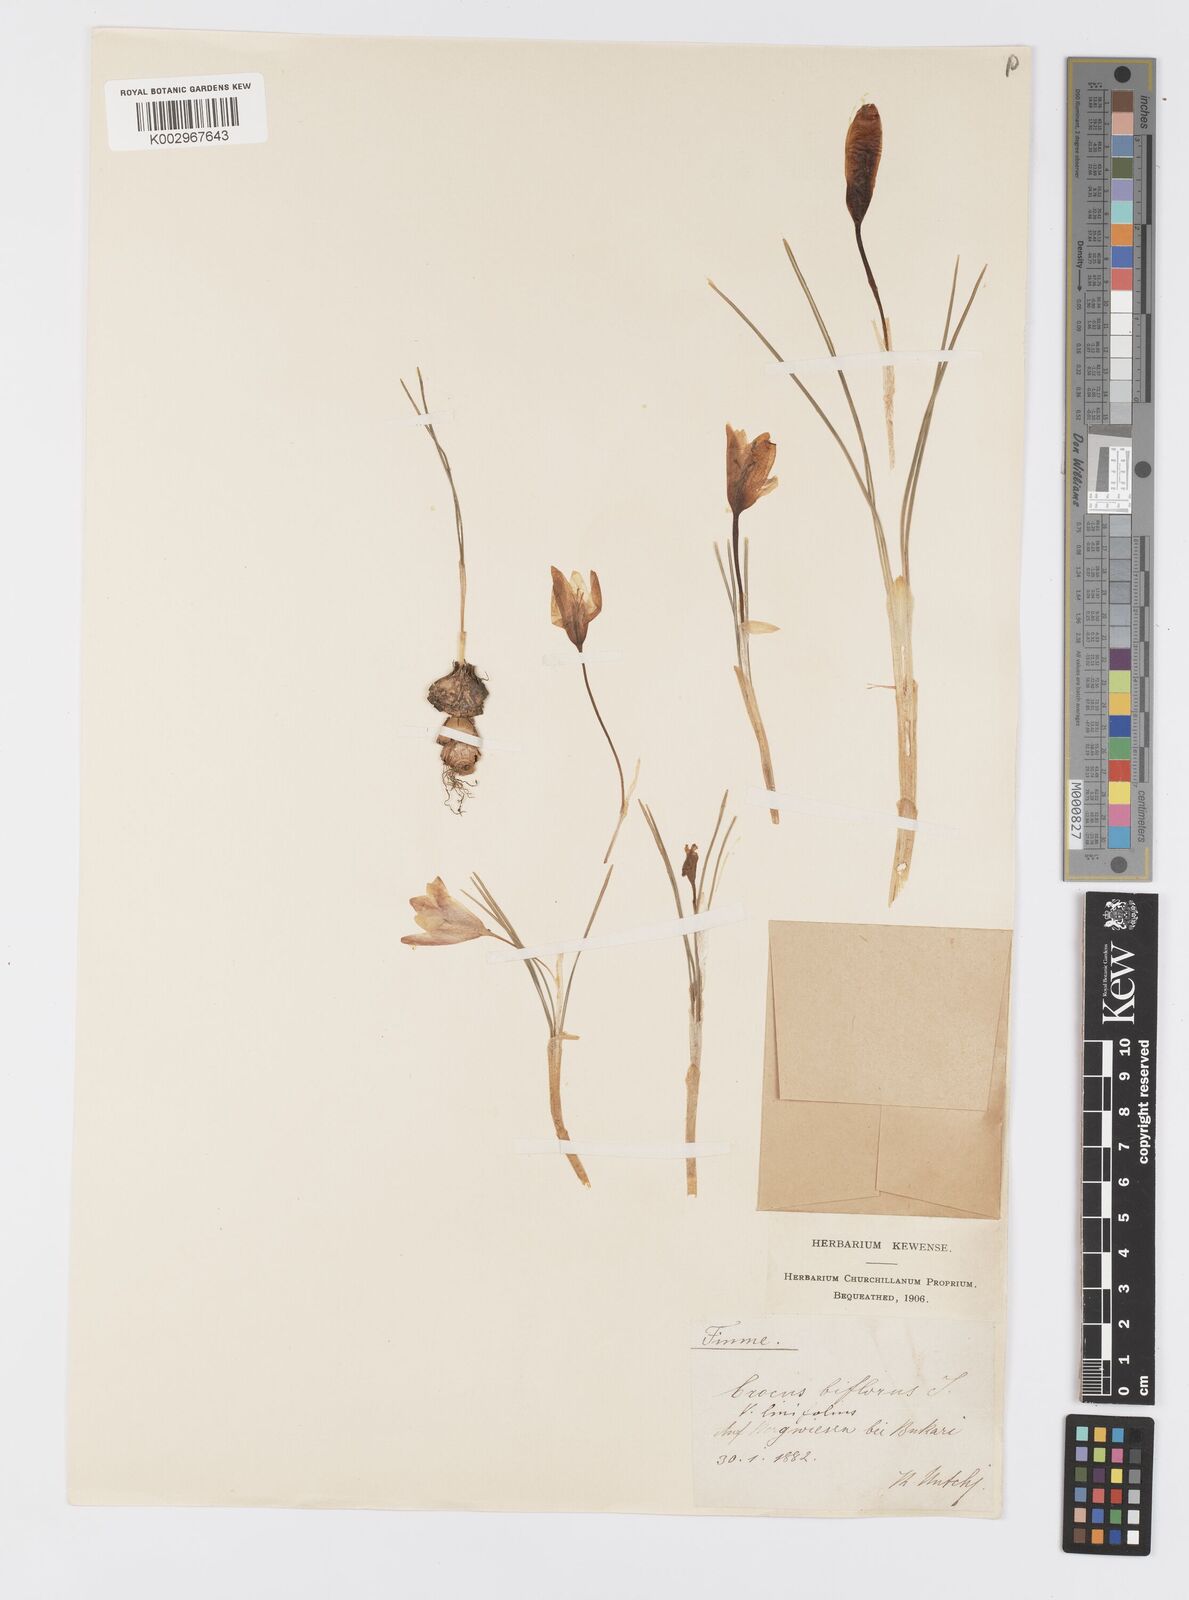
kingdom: Plantae
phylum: Tracheophyta
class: Liliopsida
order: Asparagales
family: Iridaceae
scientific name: Iridaceae
